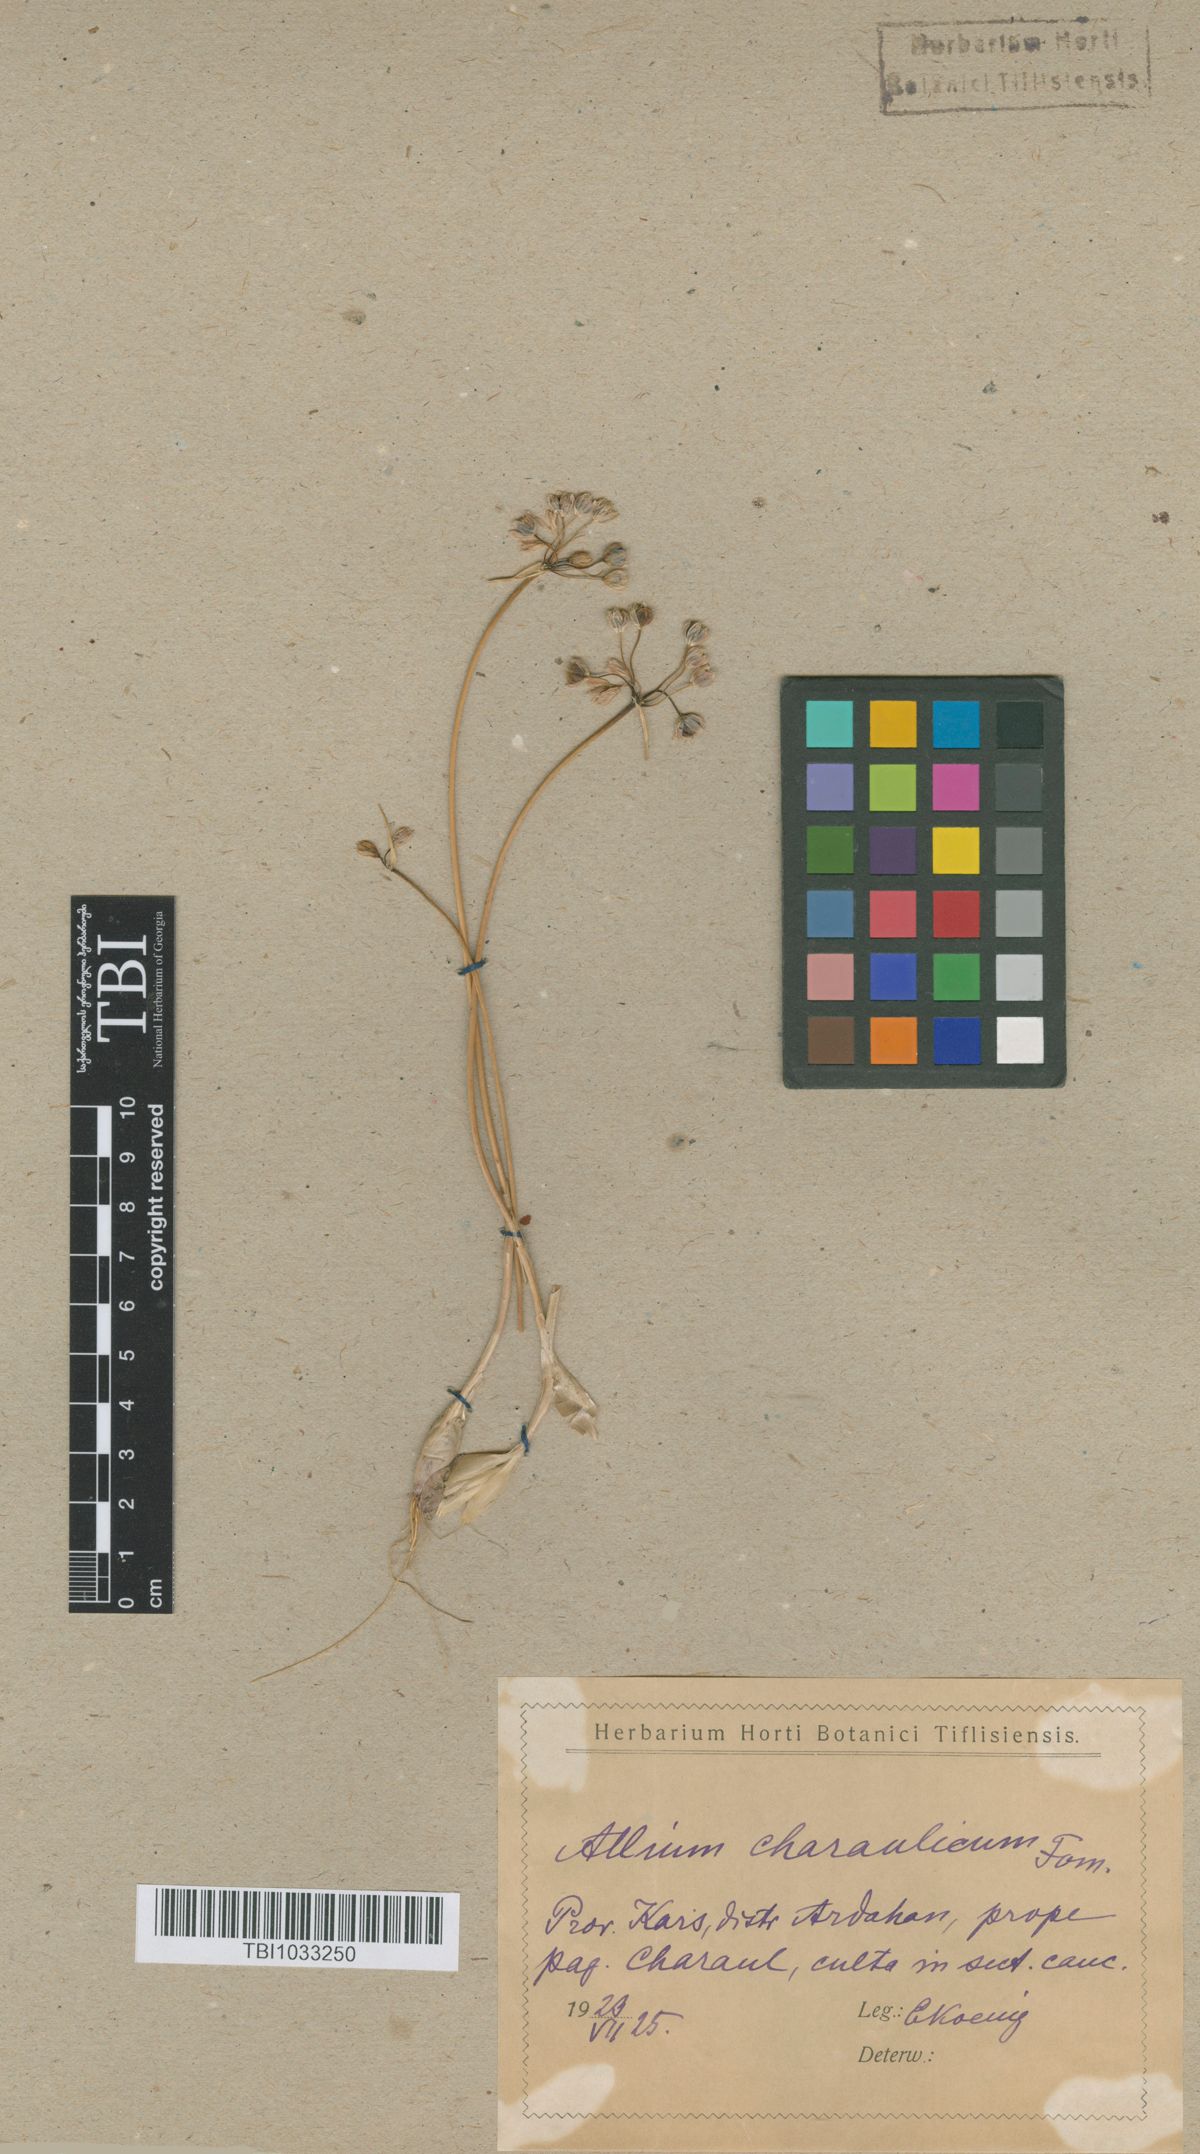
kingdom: Plantae
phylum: Tracheophyta
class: Liliopsida
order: Asparagales
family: Amaryllidaceae
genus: Allium
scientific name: Allium rupestre
